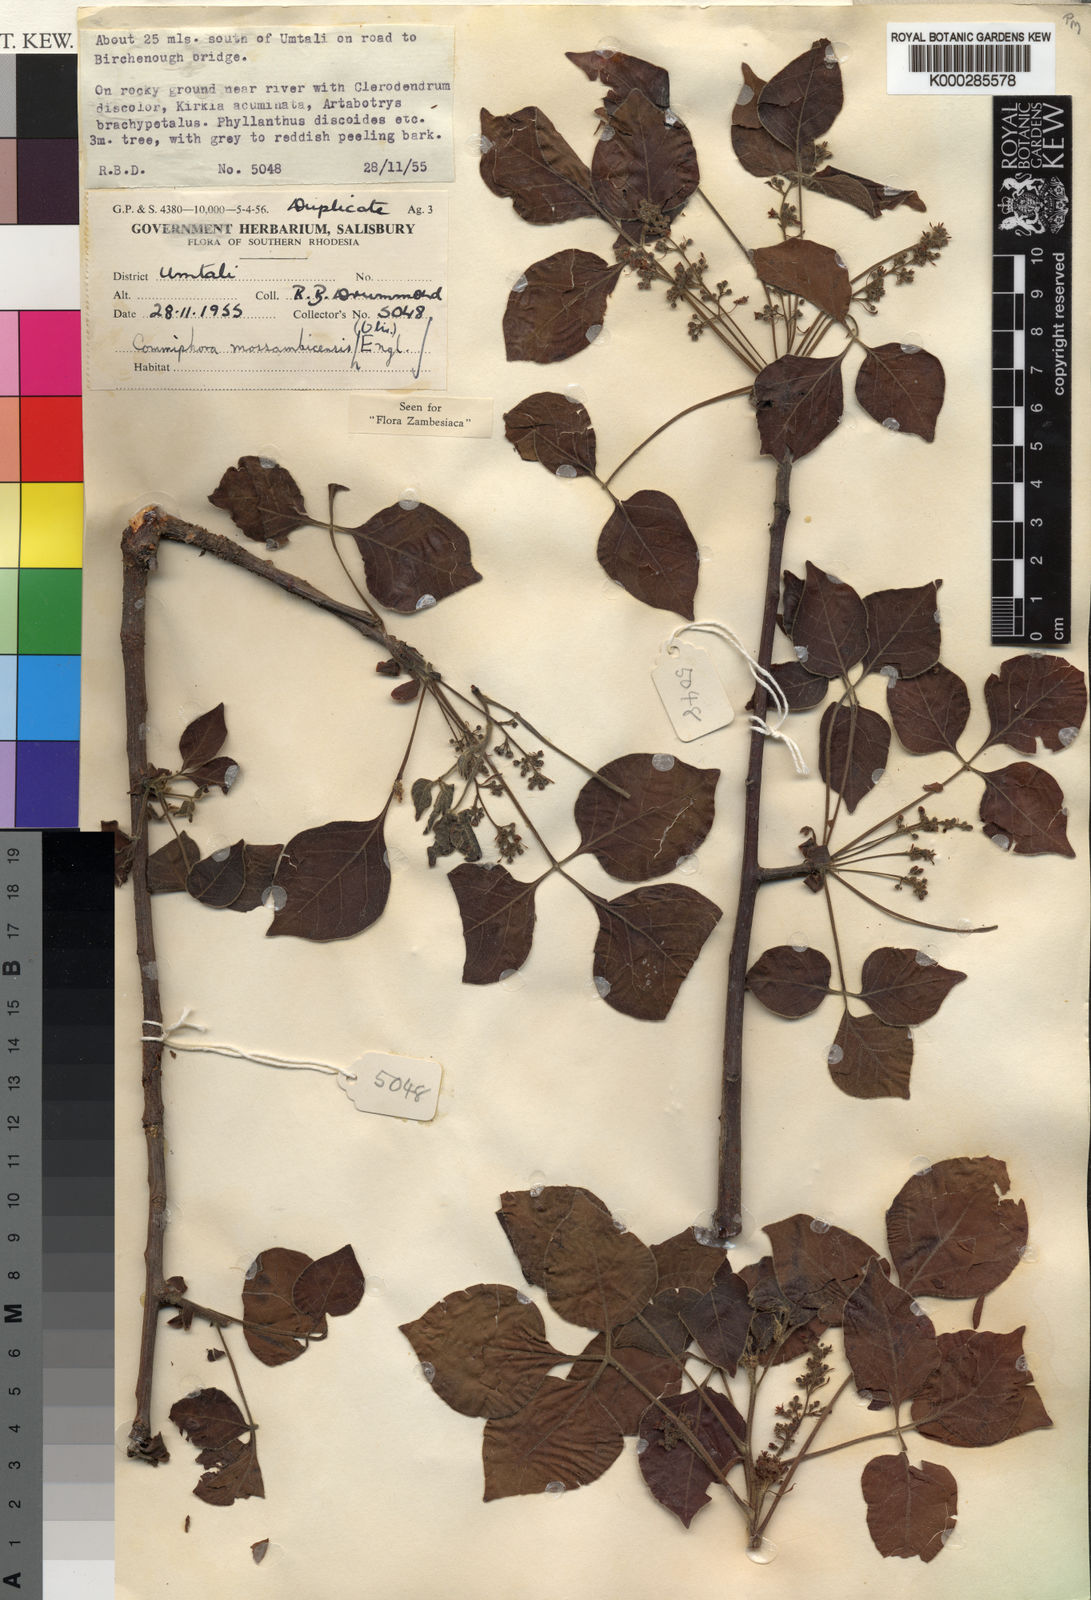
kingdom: Plantae
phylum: Tracheophyta
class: Magnoliopsida
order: Sapindales
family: Burseraceae
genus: Commiphora
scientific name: Commiphora mossambicensis
